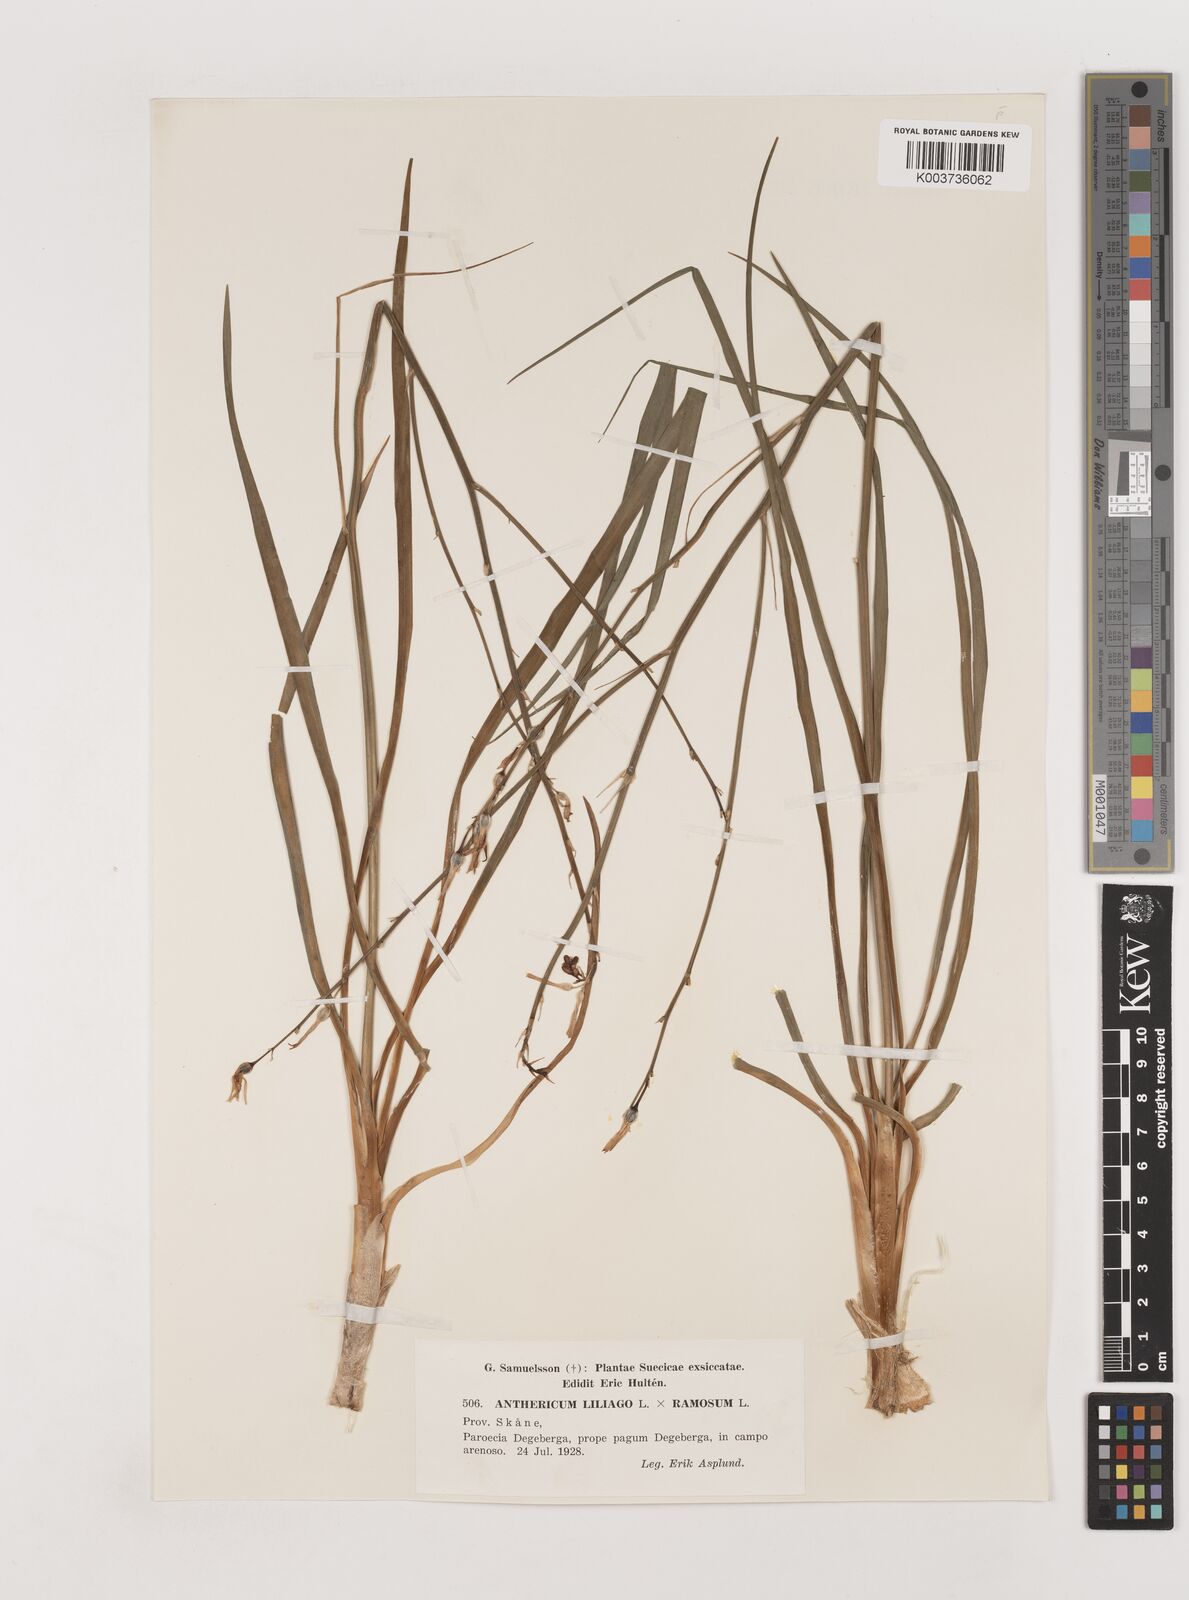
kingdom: Plantae
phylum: Tracheophyta
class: Liliopsida
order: Asparagales
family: Asparagaceae
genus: Anthericum
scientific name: Anthericum liliago
